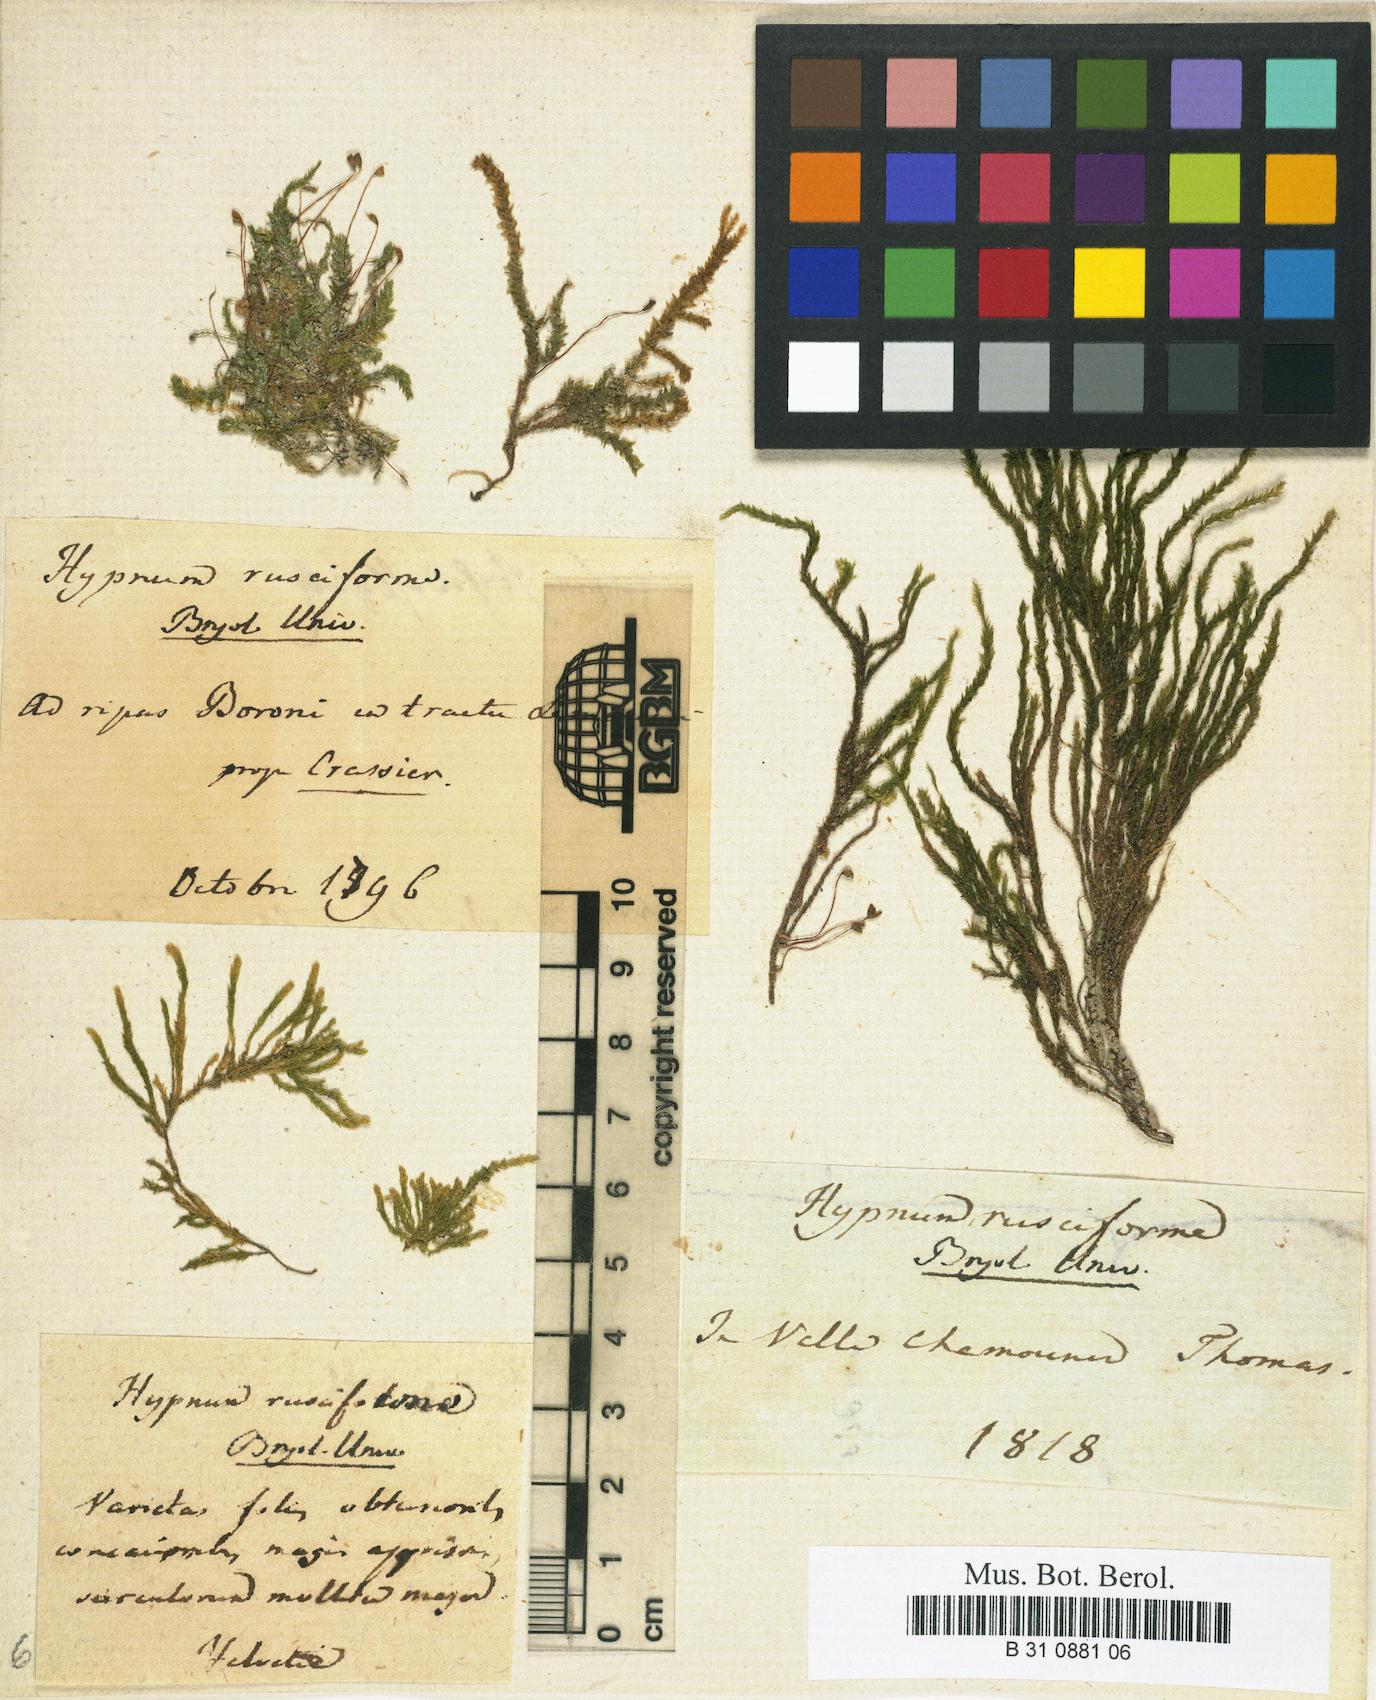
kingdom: Plantae
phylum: Bryophyta
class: Bryopsida
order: Hypnales
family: Brachytheciaceae
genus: Rhynchostegium
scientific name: Rhynchostegium riparioides
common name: Platyhypnidium moss
